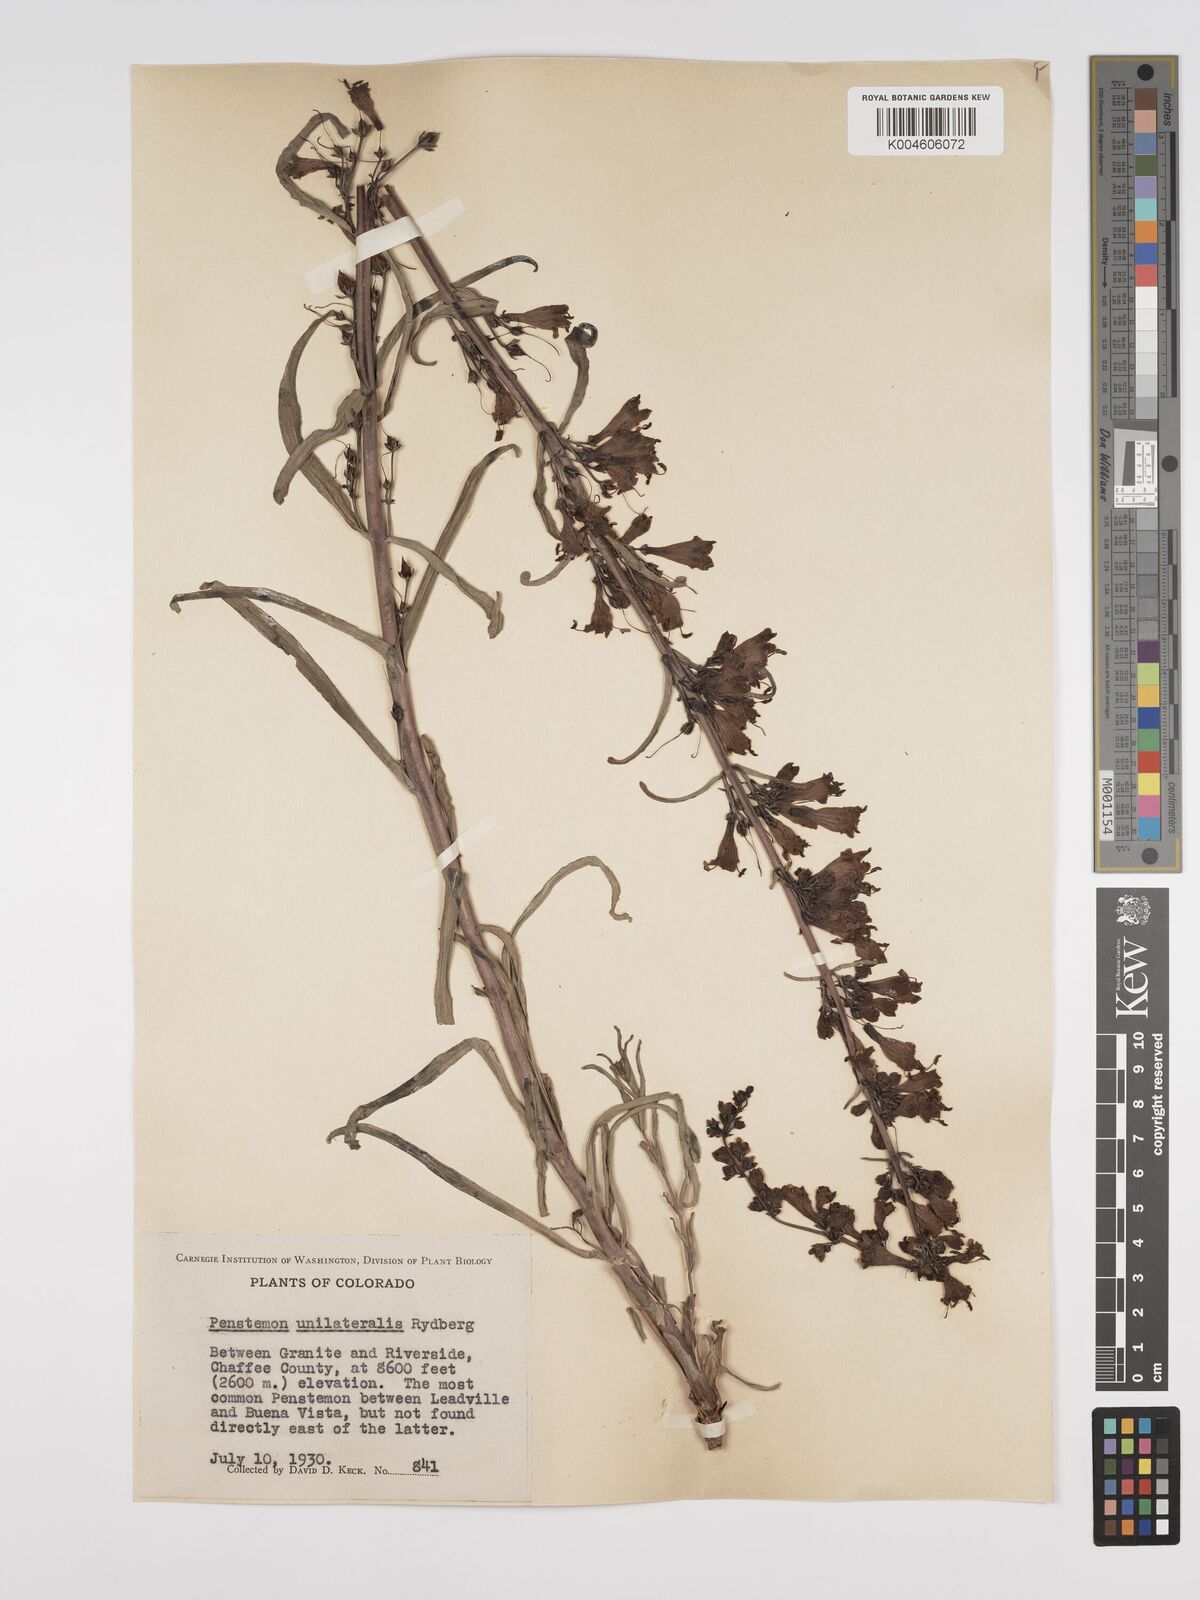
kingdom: Plantae
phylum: Tracheophyta
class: Magnoliopsida
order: Lamiales
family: Plantaginaceae
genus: Penstemon
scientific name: Penstemon unilateralis
